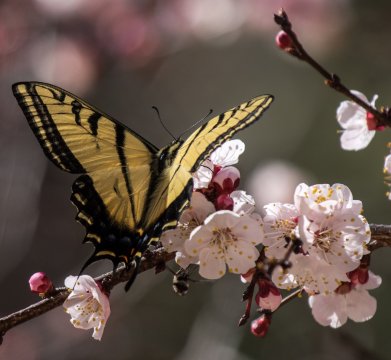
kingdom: Animalia
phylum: Arthropoda
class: Insecta
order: Lepidoptera
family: Papilionidae
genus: Papilio
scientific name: Papilio multicaudata
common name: Two-tailed Swallowtail
